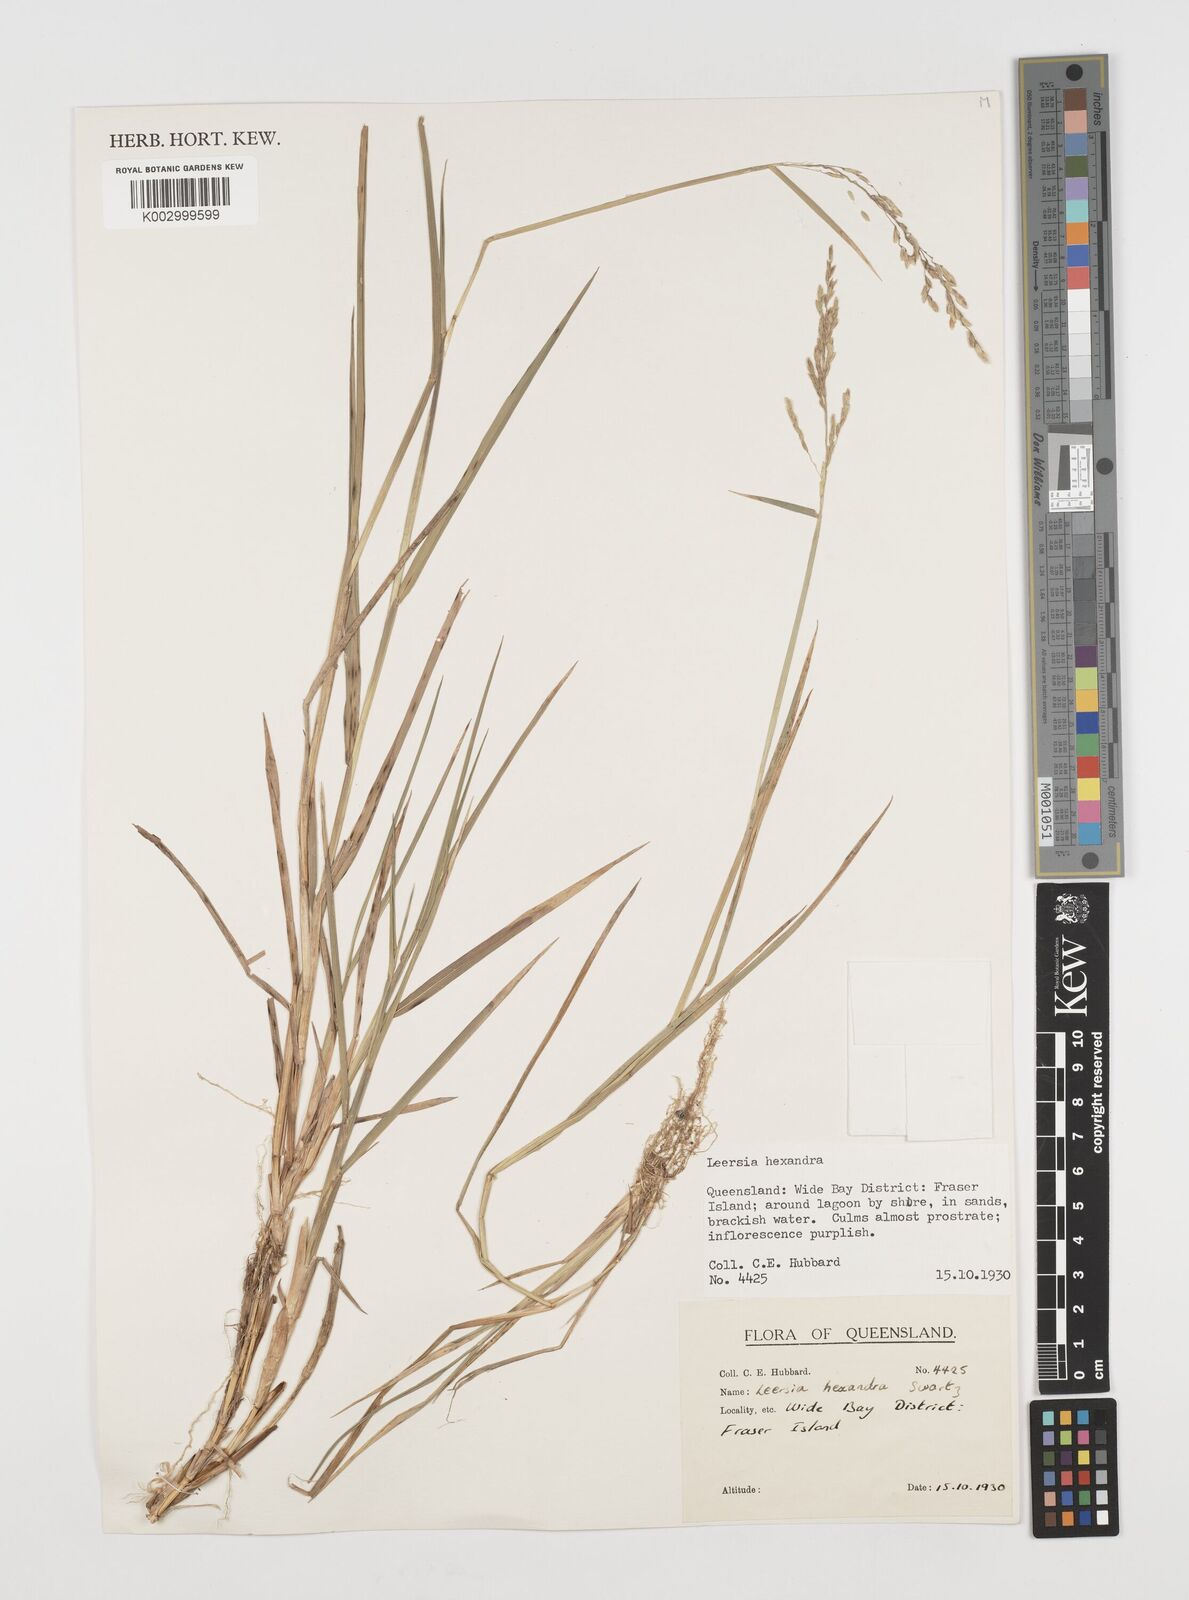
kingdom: Plantae
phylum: Tracheophyta
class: Liliopsida
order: Poales
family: Poaceae
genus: Leersia
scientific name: Leersia hexandra
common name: Southern cut grass
